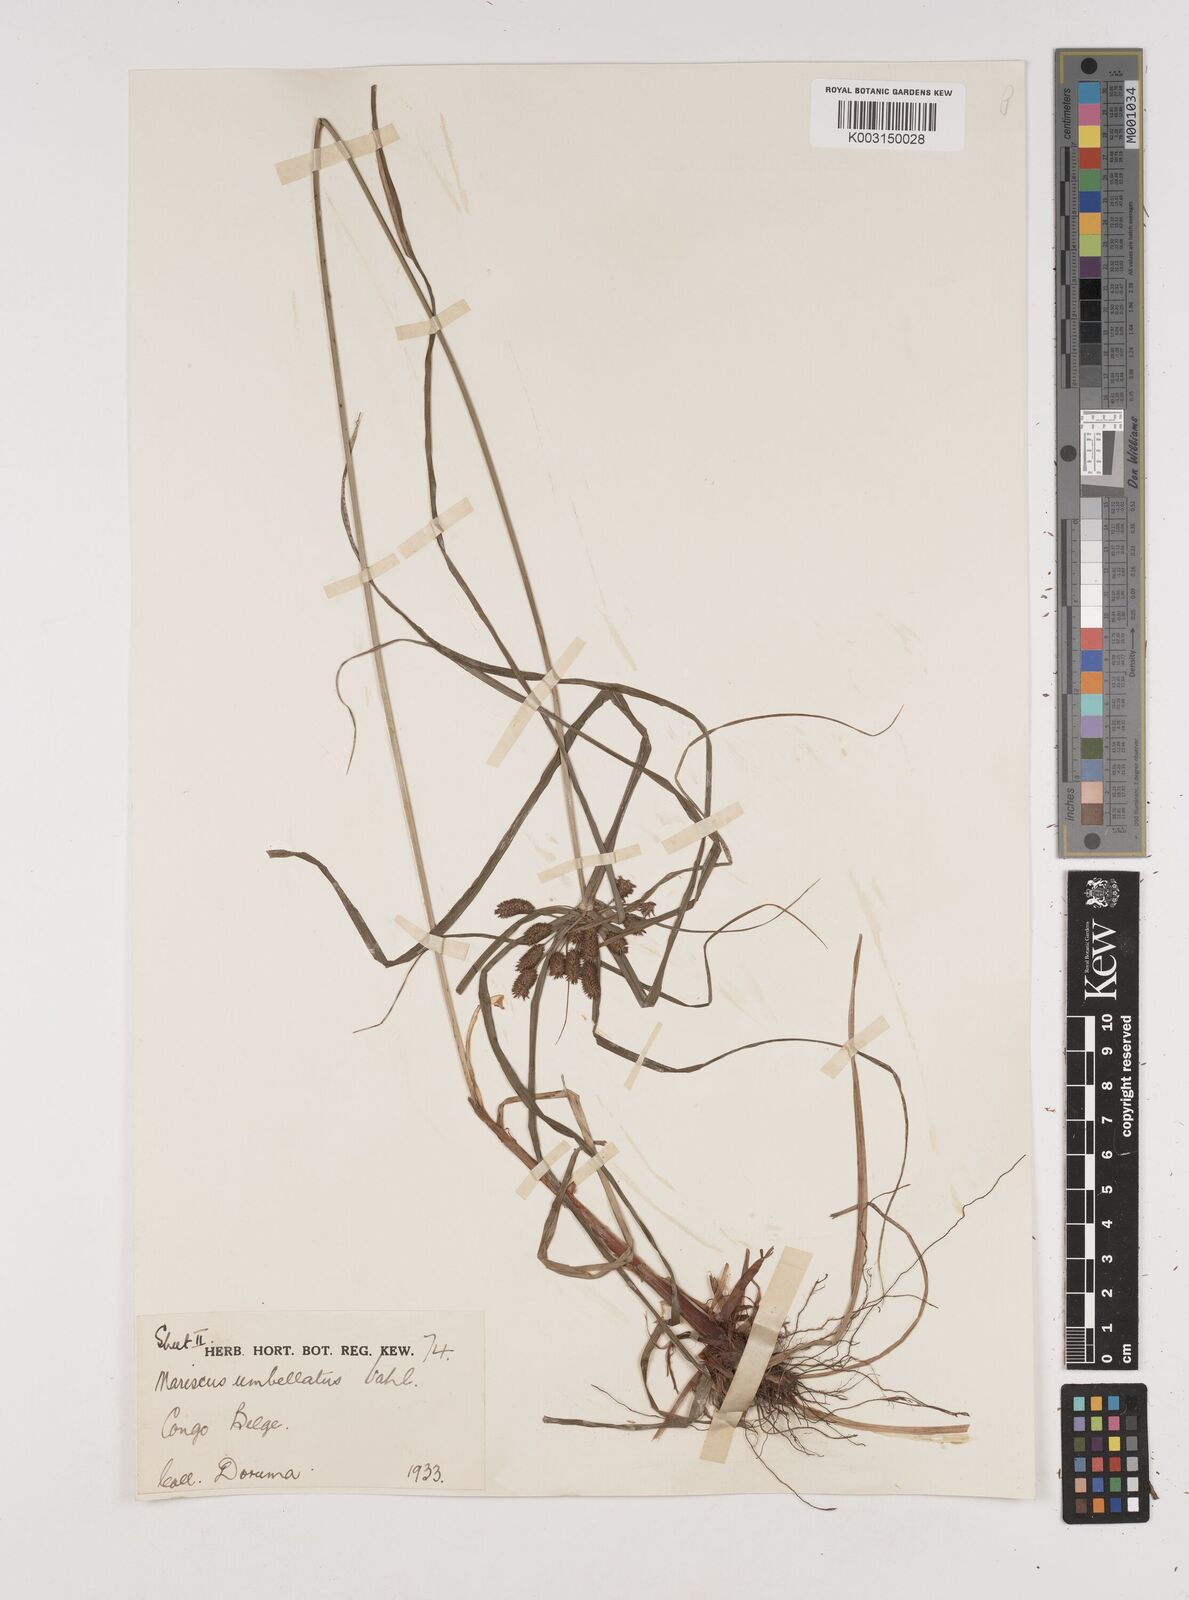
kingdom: Plantae
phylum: Tracheophyta
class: Liliopsida
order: Poales
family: Cyperaceae
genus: Cyperus
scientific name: Cyperus cyperoides
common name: Pacific island flat sedge
